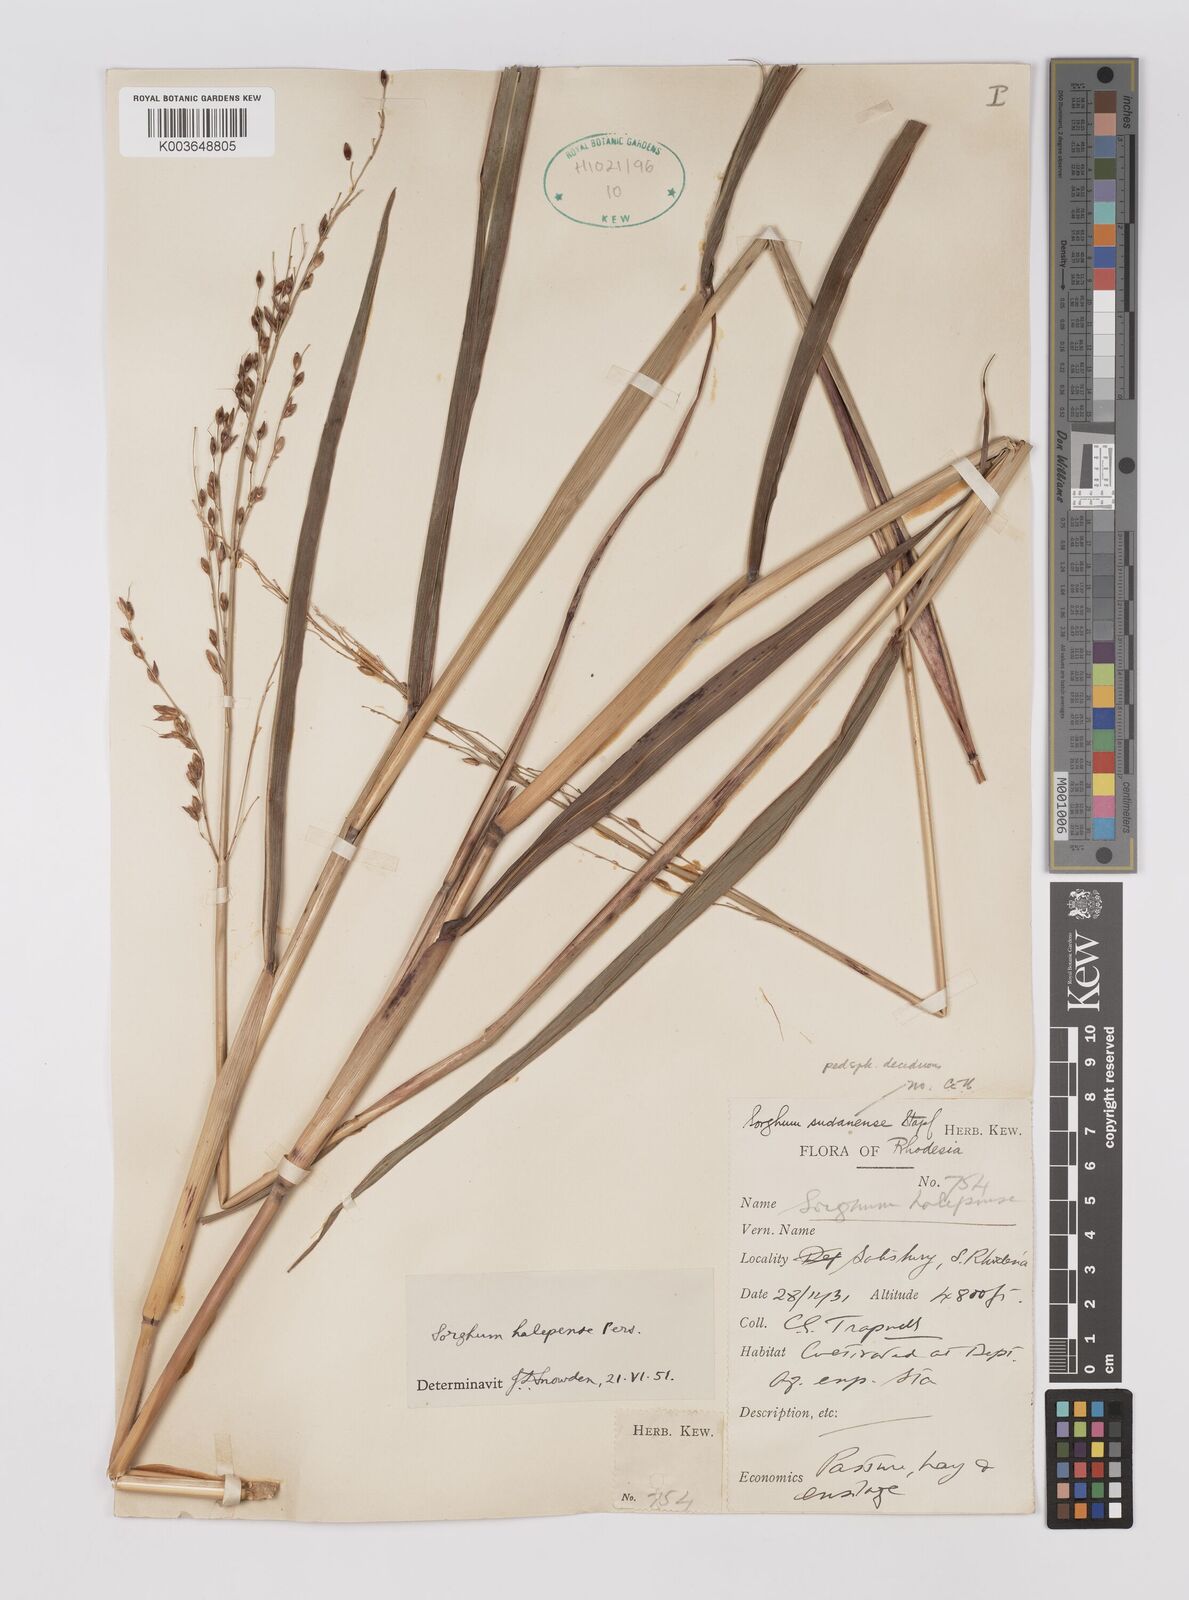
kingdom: Plantae
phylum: Tracheophyta
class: Liliopsida
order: Poales
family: Poaceae
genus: Sorghum
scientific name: Sorghum halepense
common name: Johnson-grass
